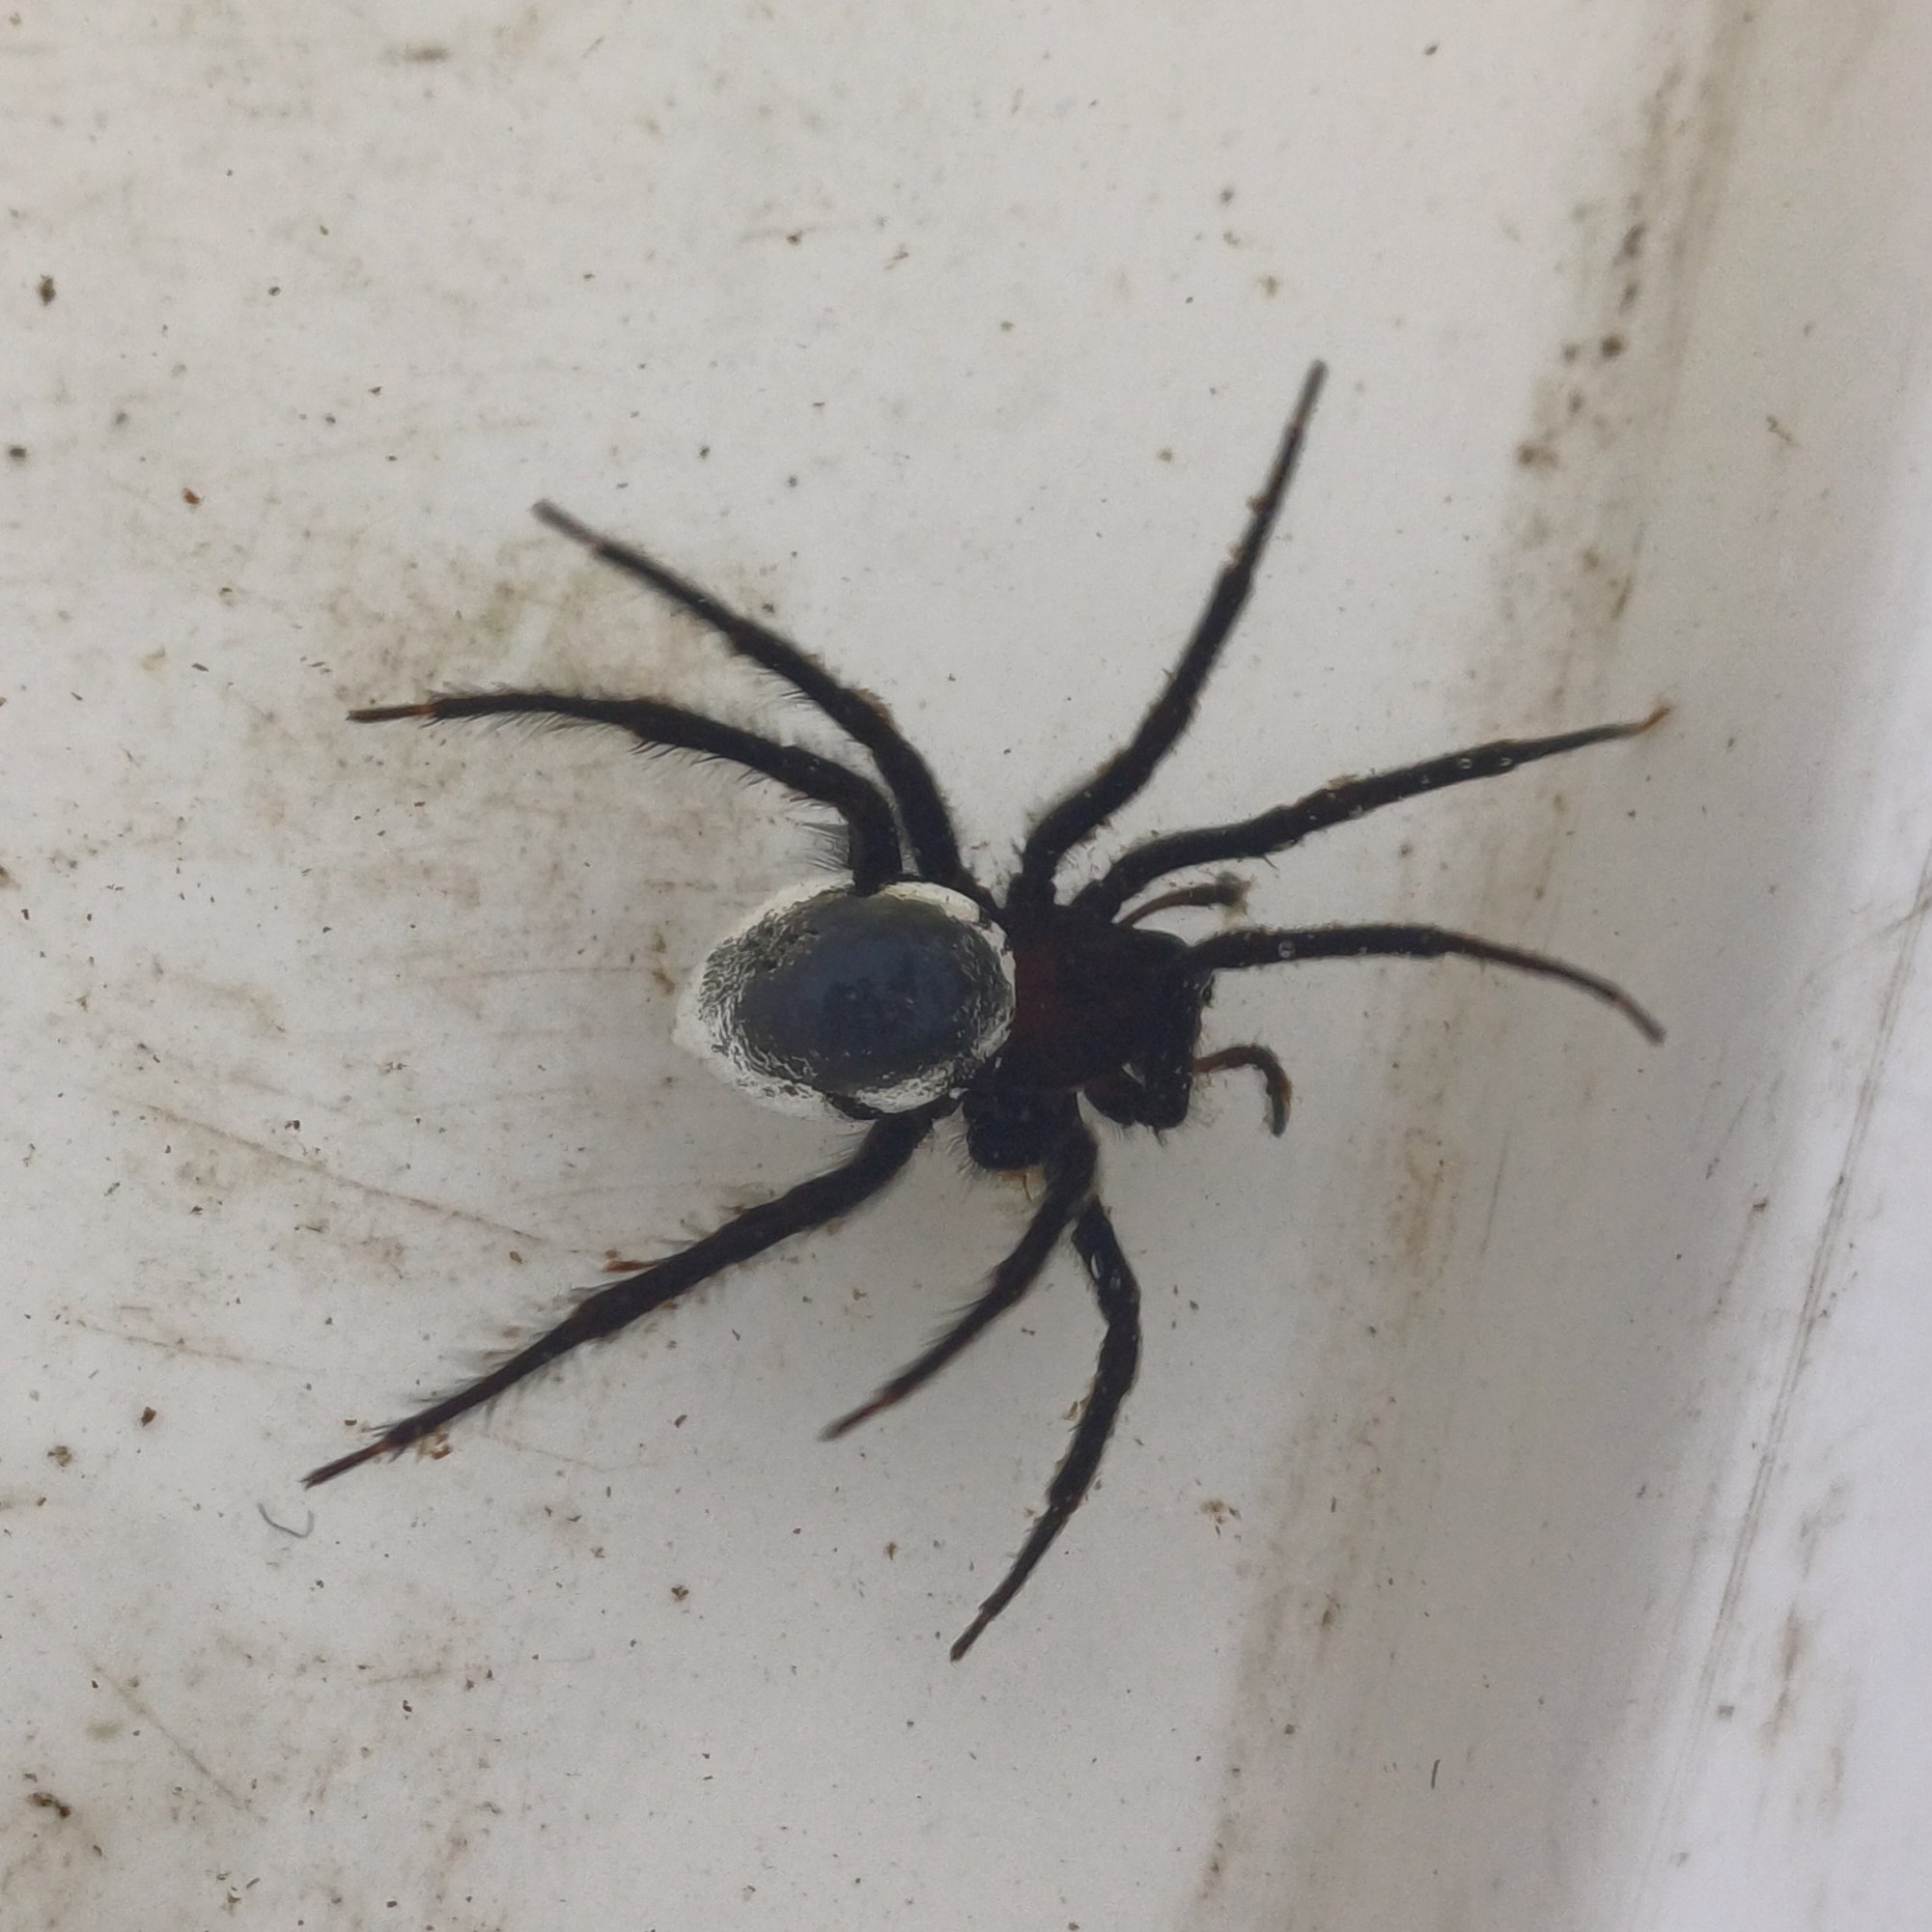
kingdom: Animalia
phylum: Arthropoda
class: Arachnida
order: Araneae
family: Dictynidae
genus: Argyroneta
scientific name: Argyroneta aquatica
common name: Vandedderkop
